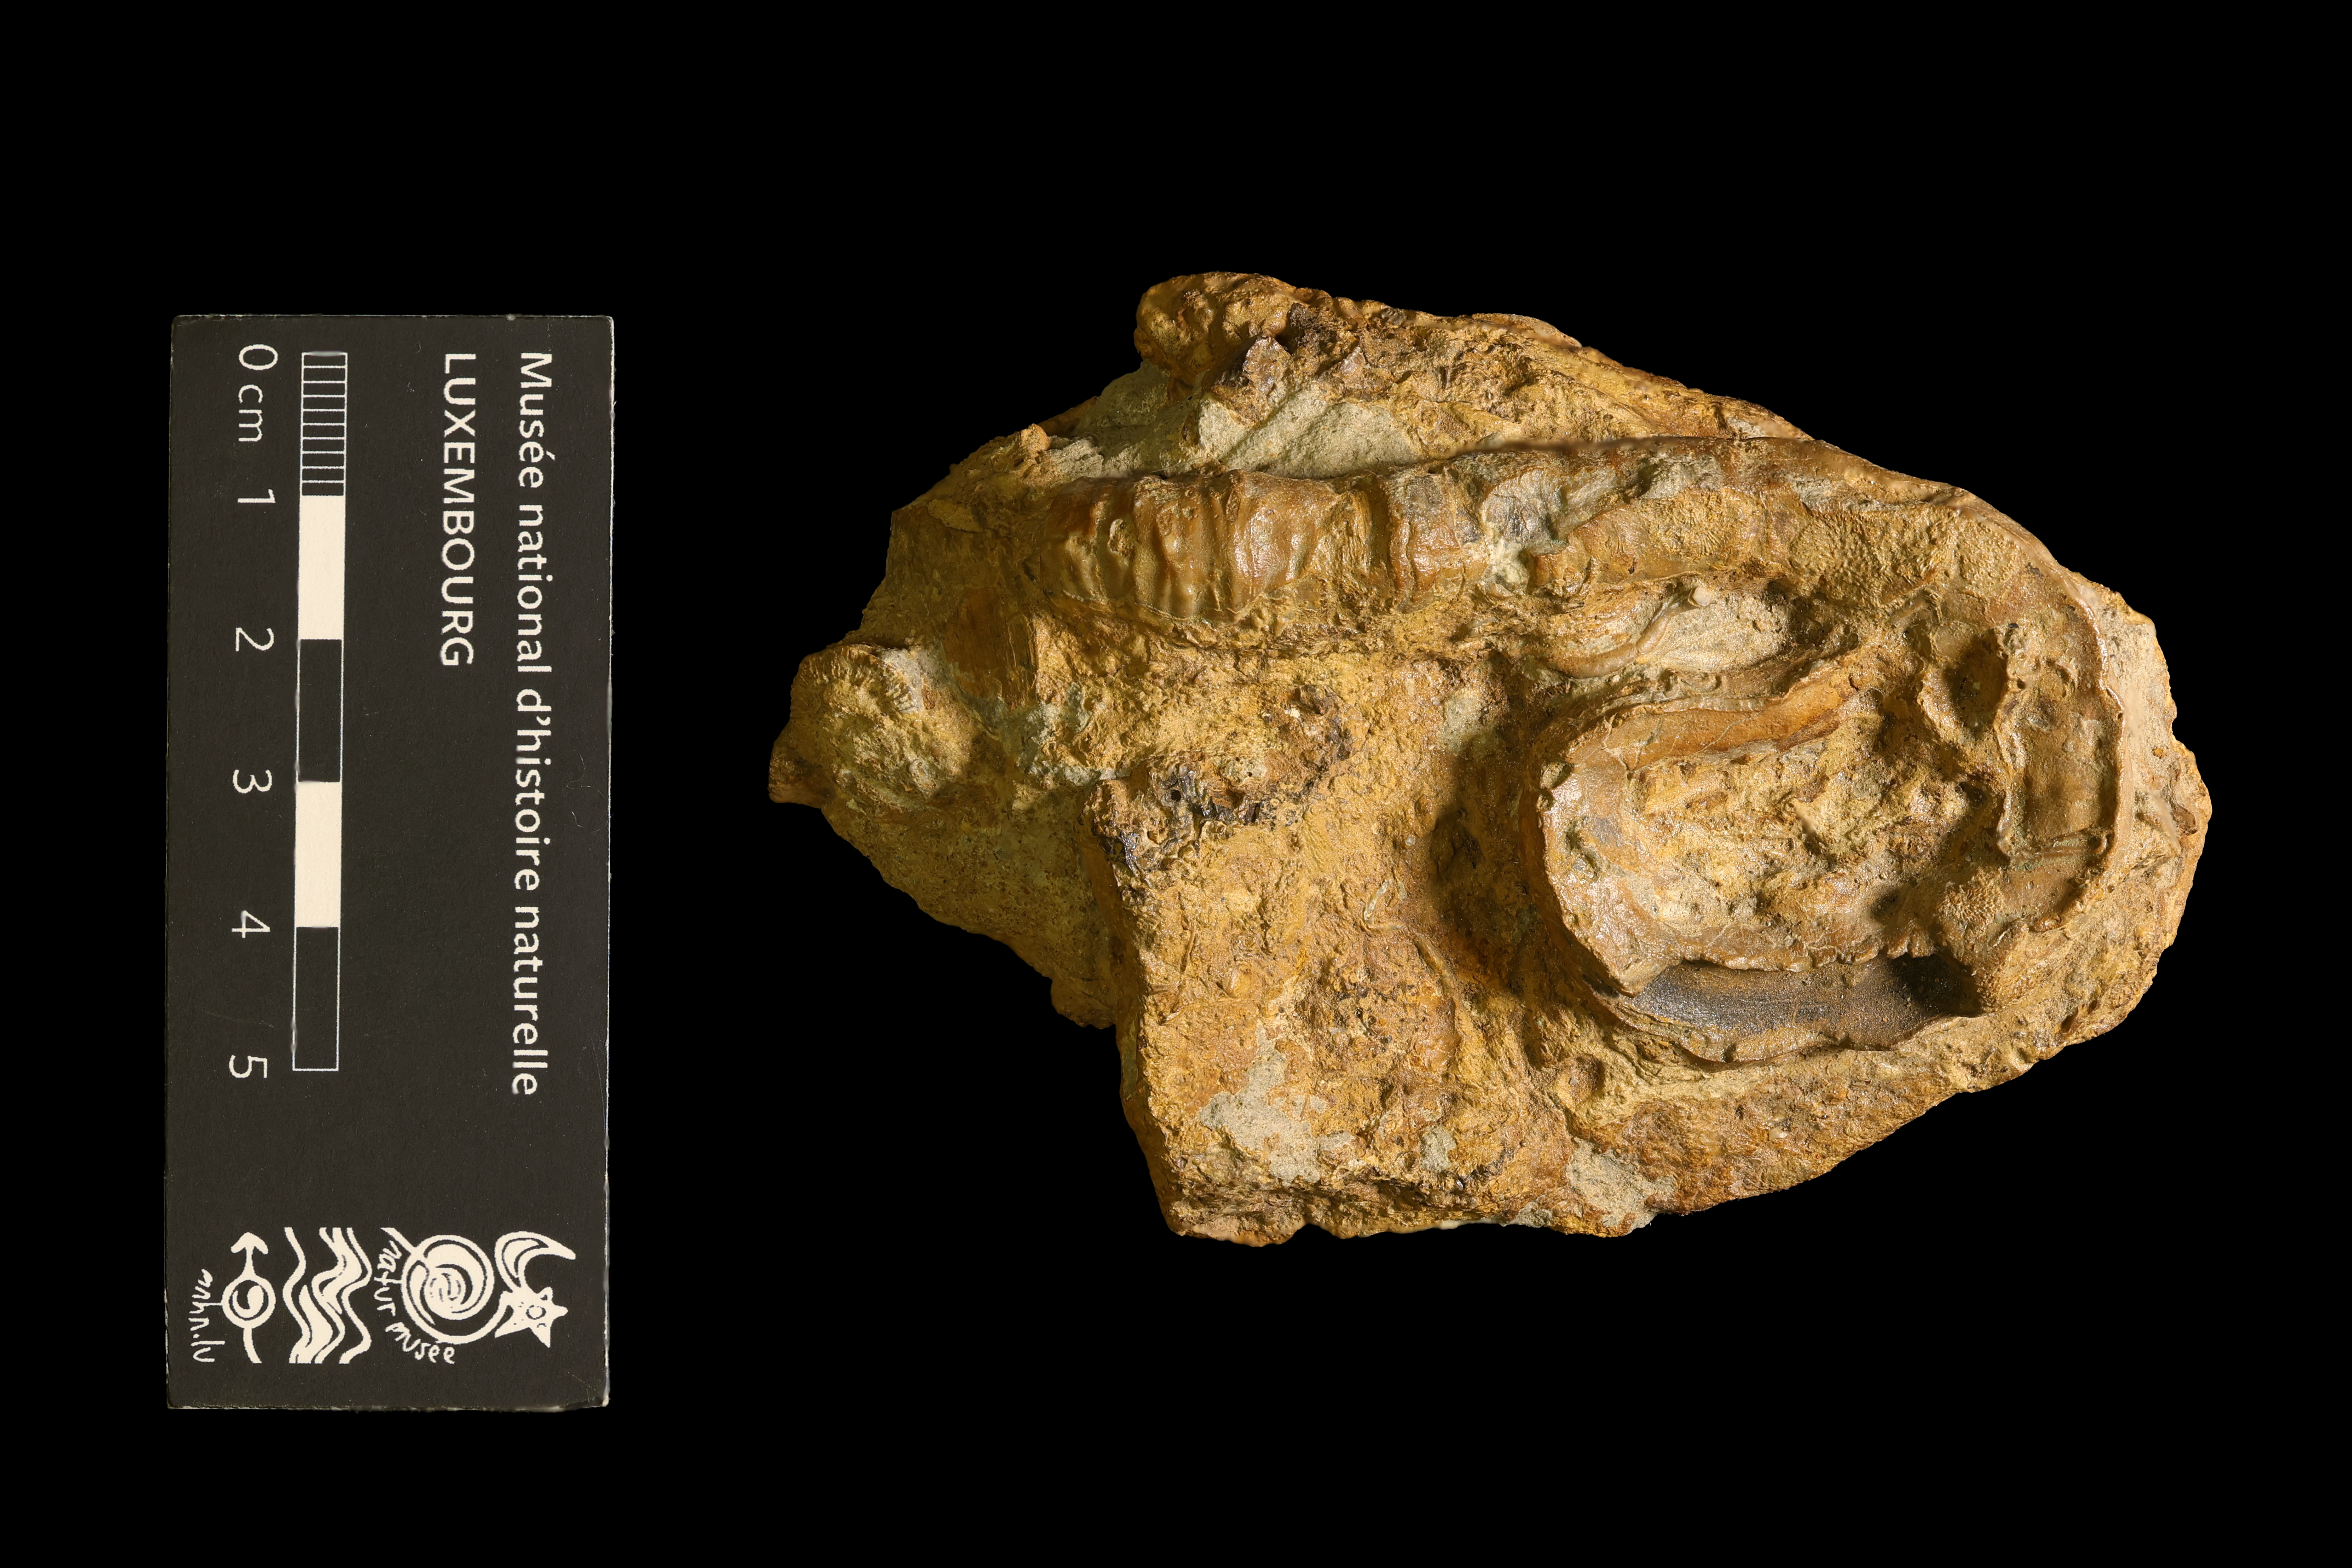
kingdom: Animalia
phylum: Mollusca
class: Gastropoda
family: Turritellidae
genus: Vermicularia
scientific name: Vermicularia lumbricalis
